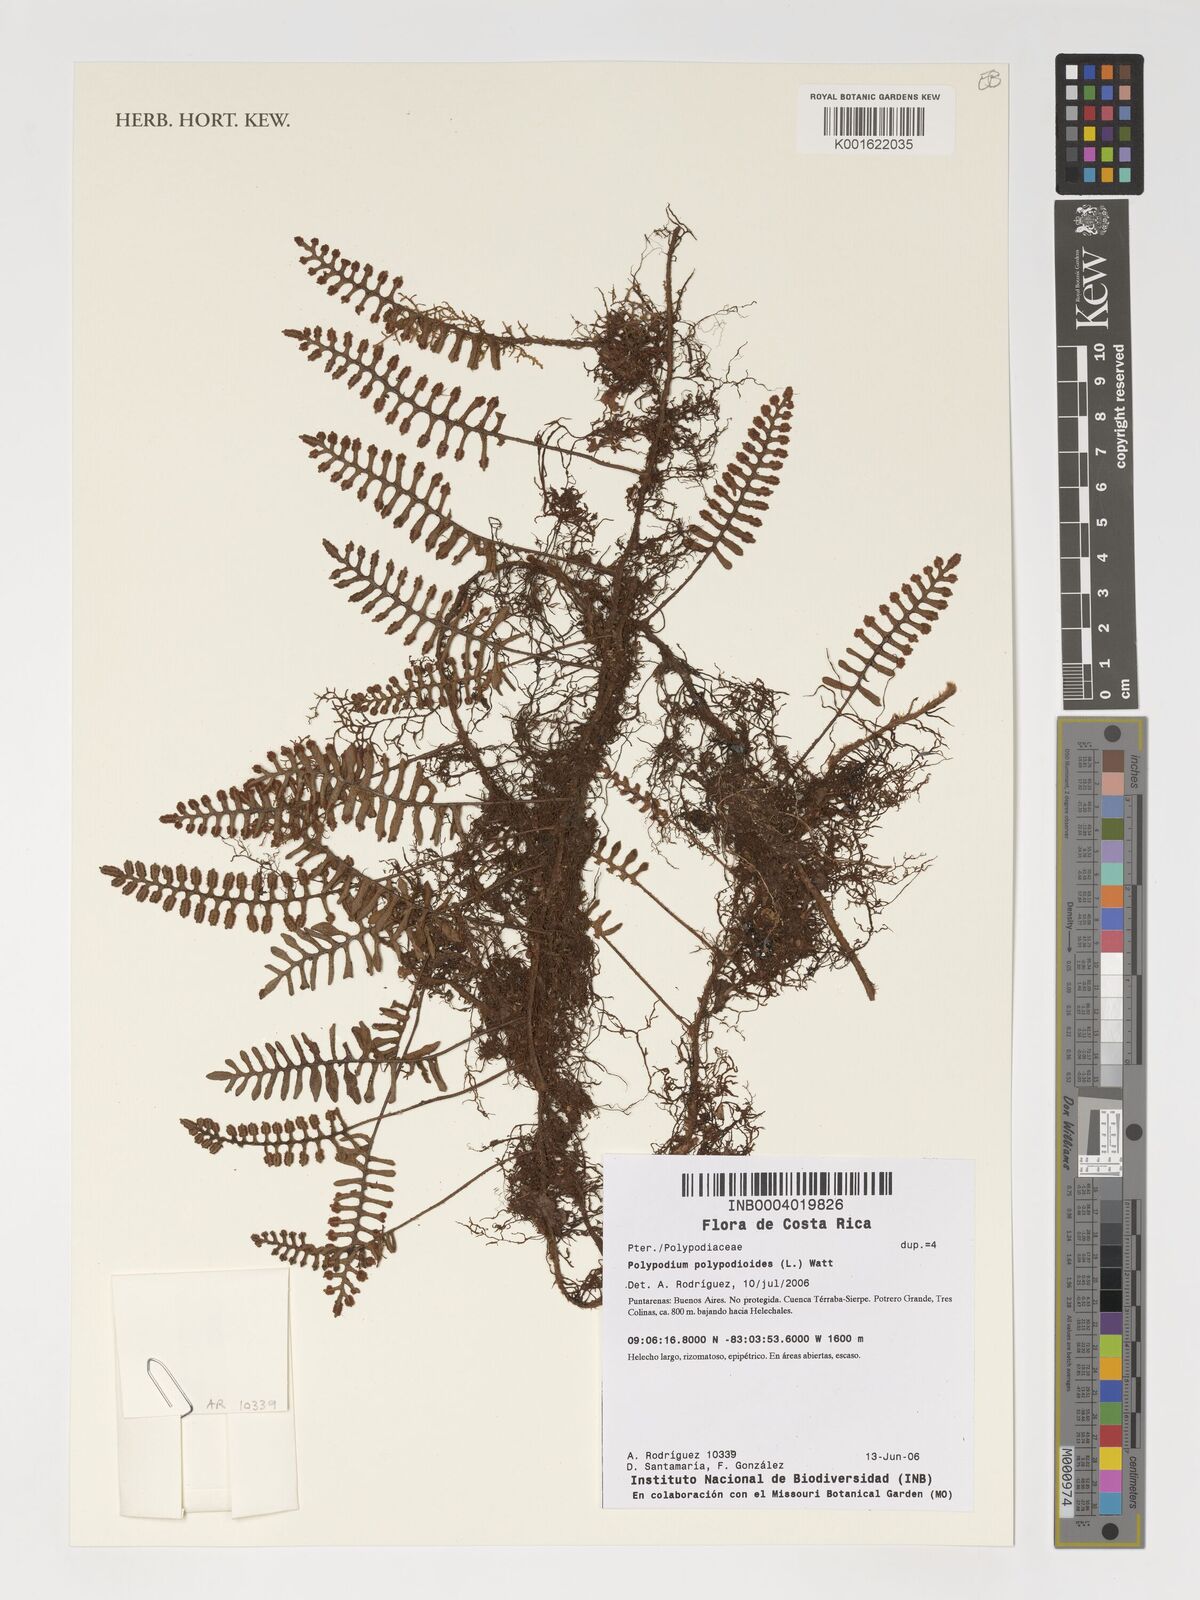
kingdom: Plantae
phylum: Tracheophyta
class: Polypodiopsida
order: Polypodiales
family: Polypodiaceae
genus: Pleopeltis
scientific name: Pleopeltis polypodioides
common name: Resurrection fern
